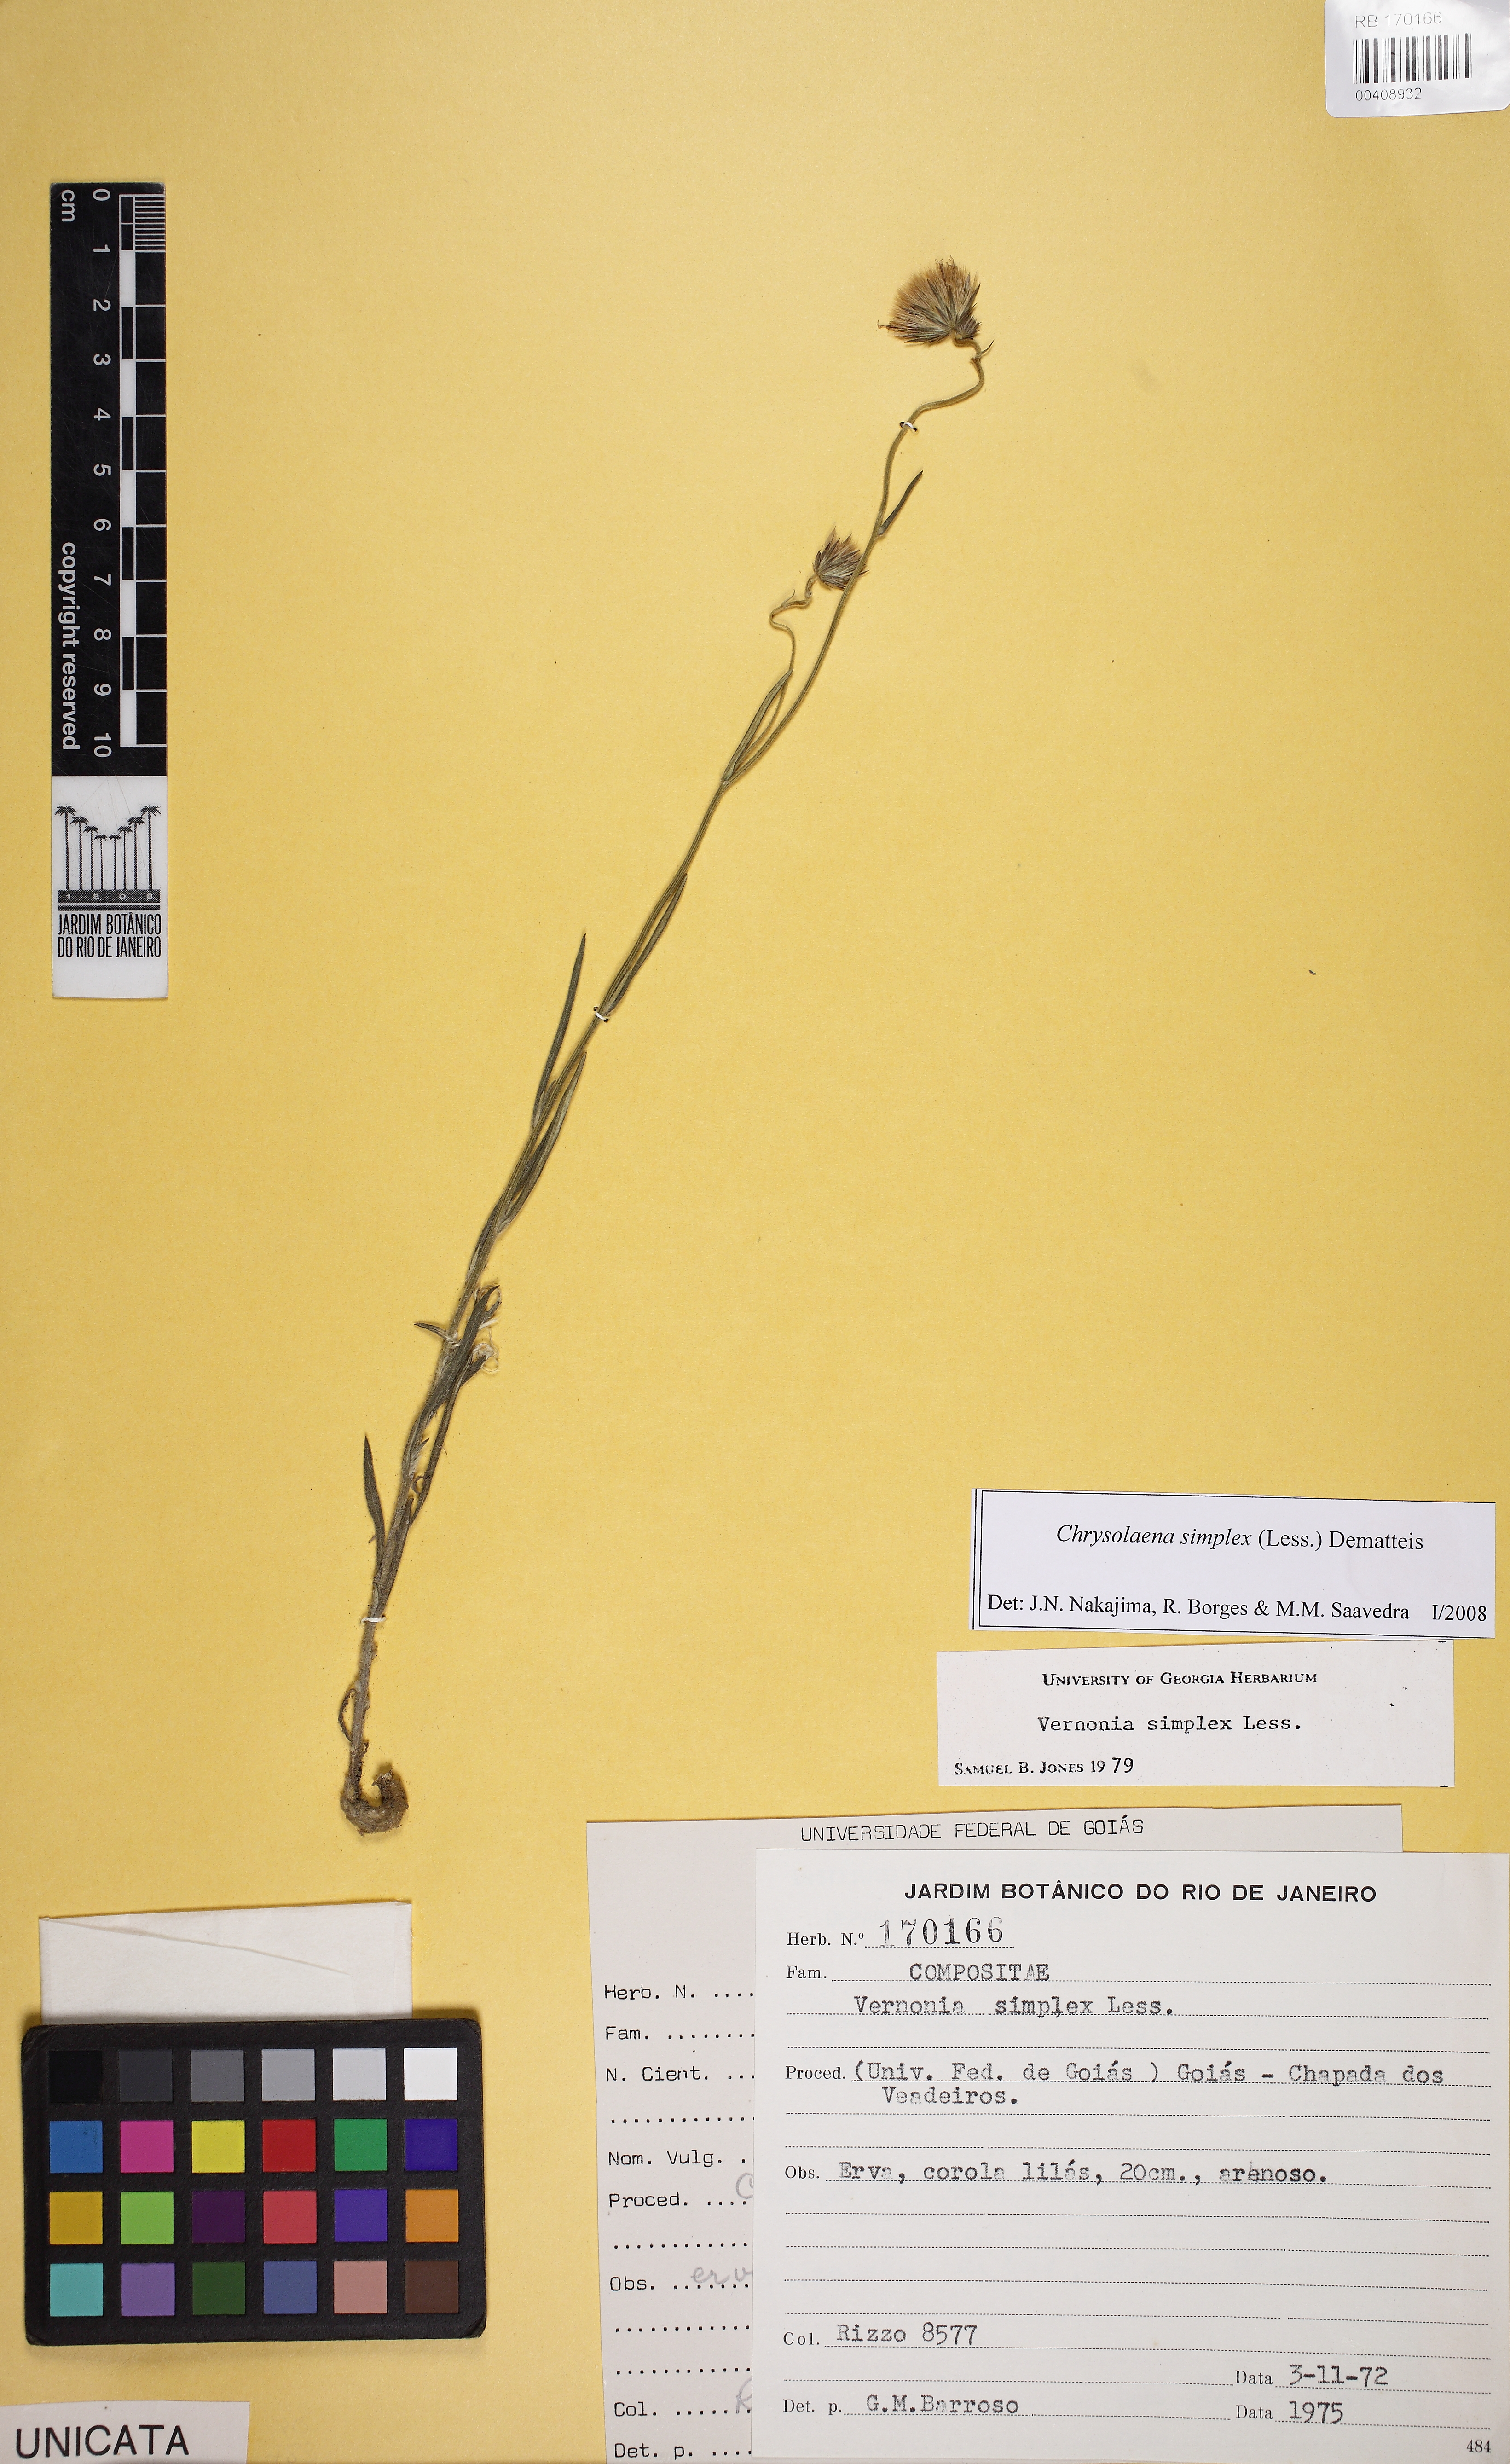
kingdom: Plantae
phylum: Tracheophyta
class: Magnoliopsida
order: Asterales
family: Asteraceae
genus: Chrysolaena
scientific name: Chrysolaena simplex
